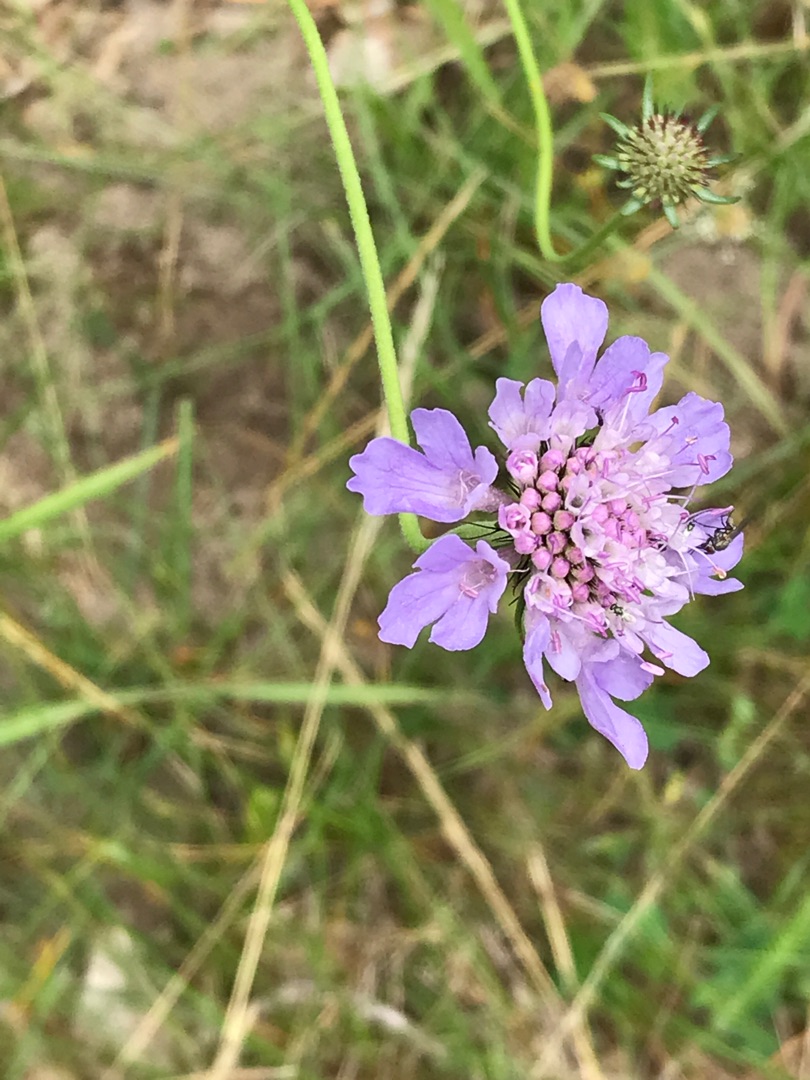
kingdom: Plantae
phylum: Tracheophyta
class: Magnoliopsida
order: Dipsacales
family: Caprifoliaceae
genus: Scabiosa
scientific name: Scabiosa columbaria
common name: Due-skabiose
